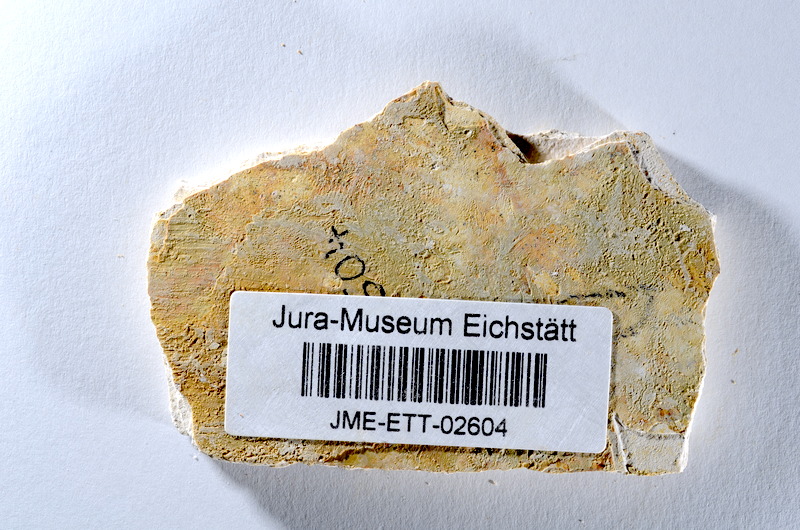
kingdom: Animalia
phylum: Chordata
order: Salmoniformes
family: Orthogonikleithridae
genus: Orthogonikleithrus
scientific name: Orthogonikleithrus hoelli
